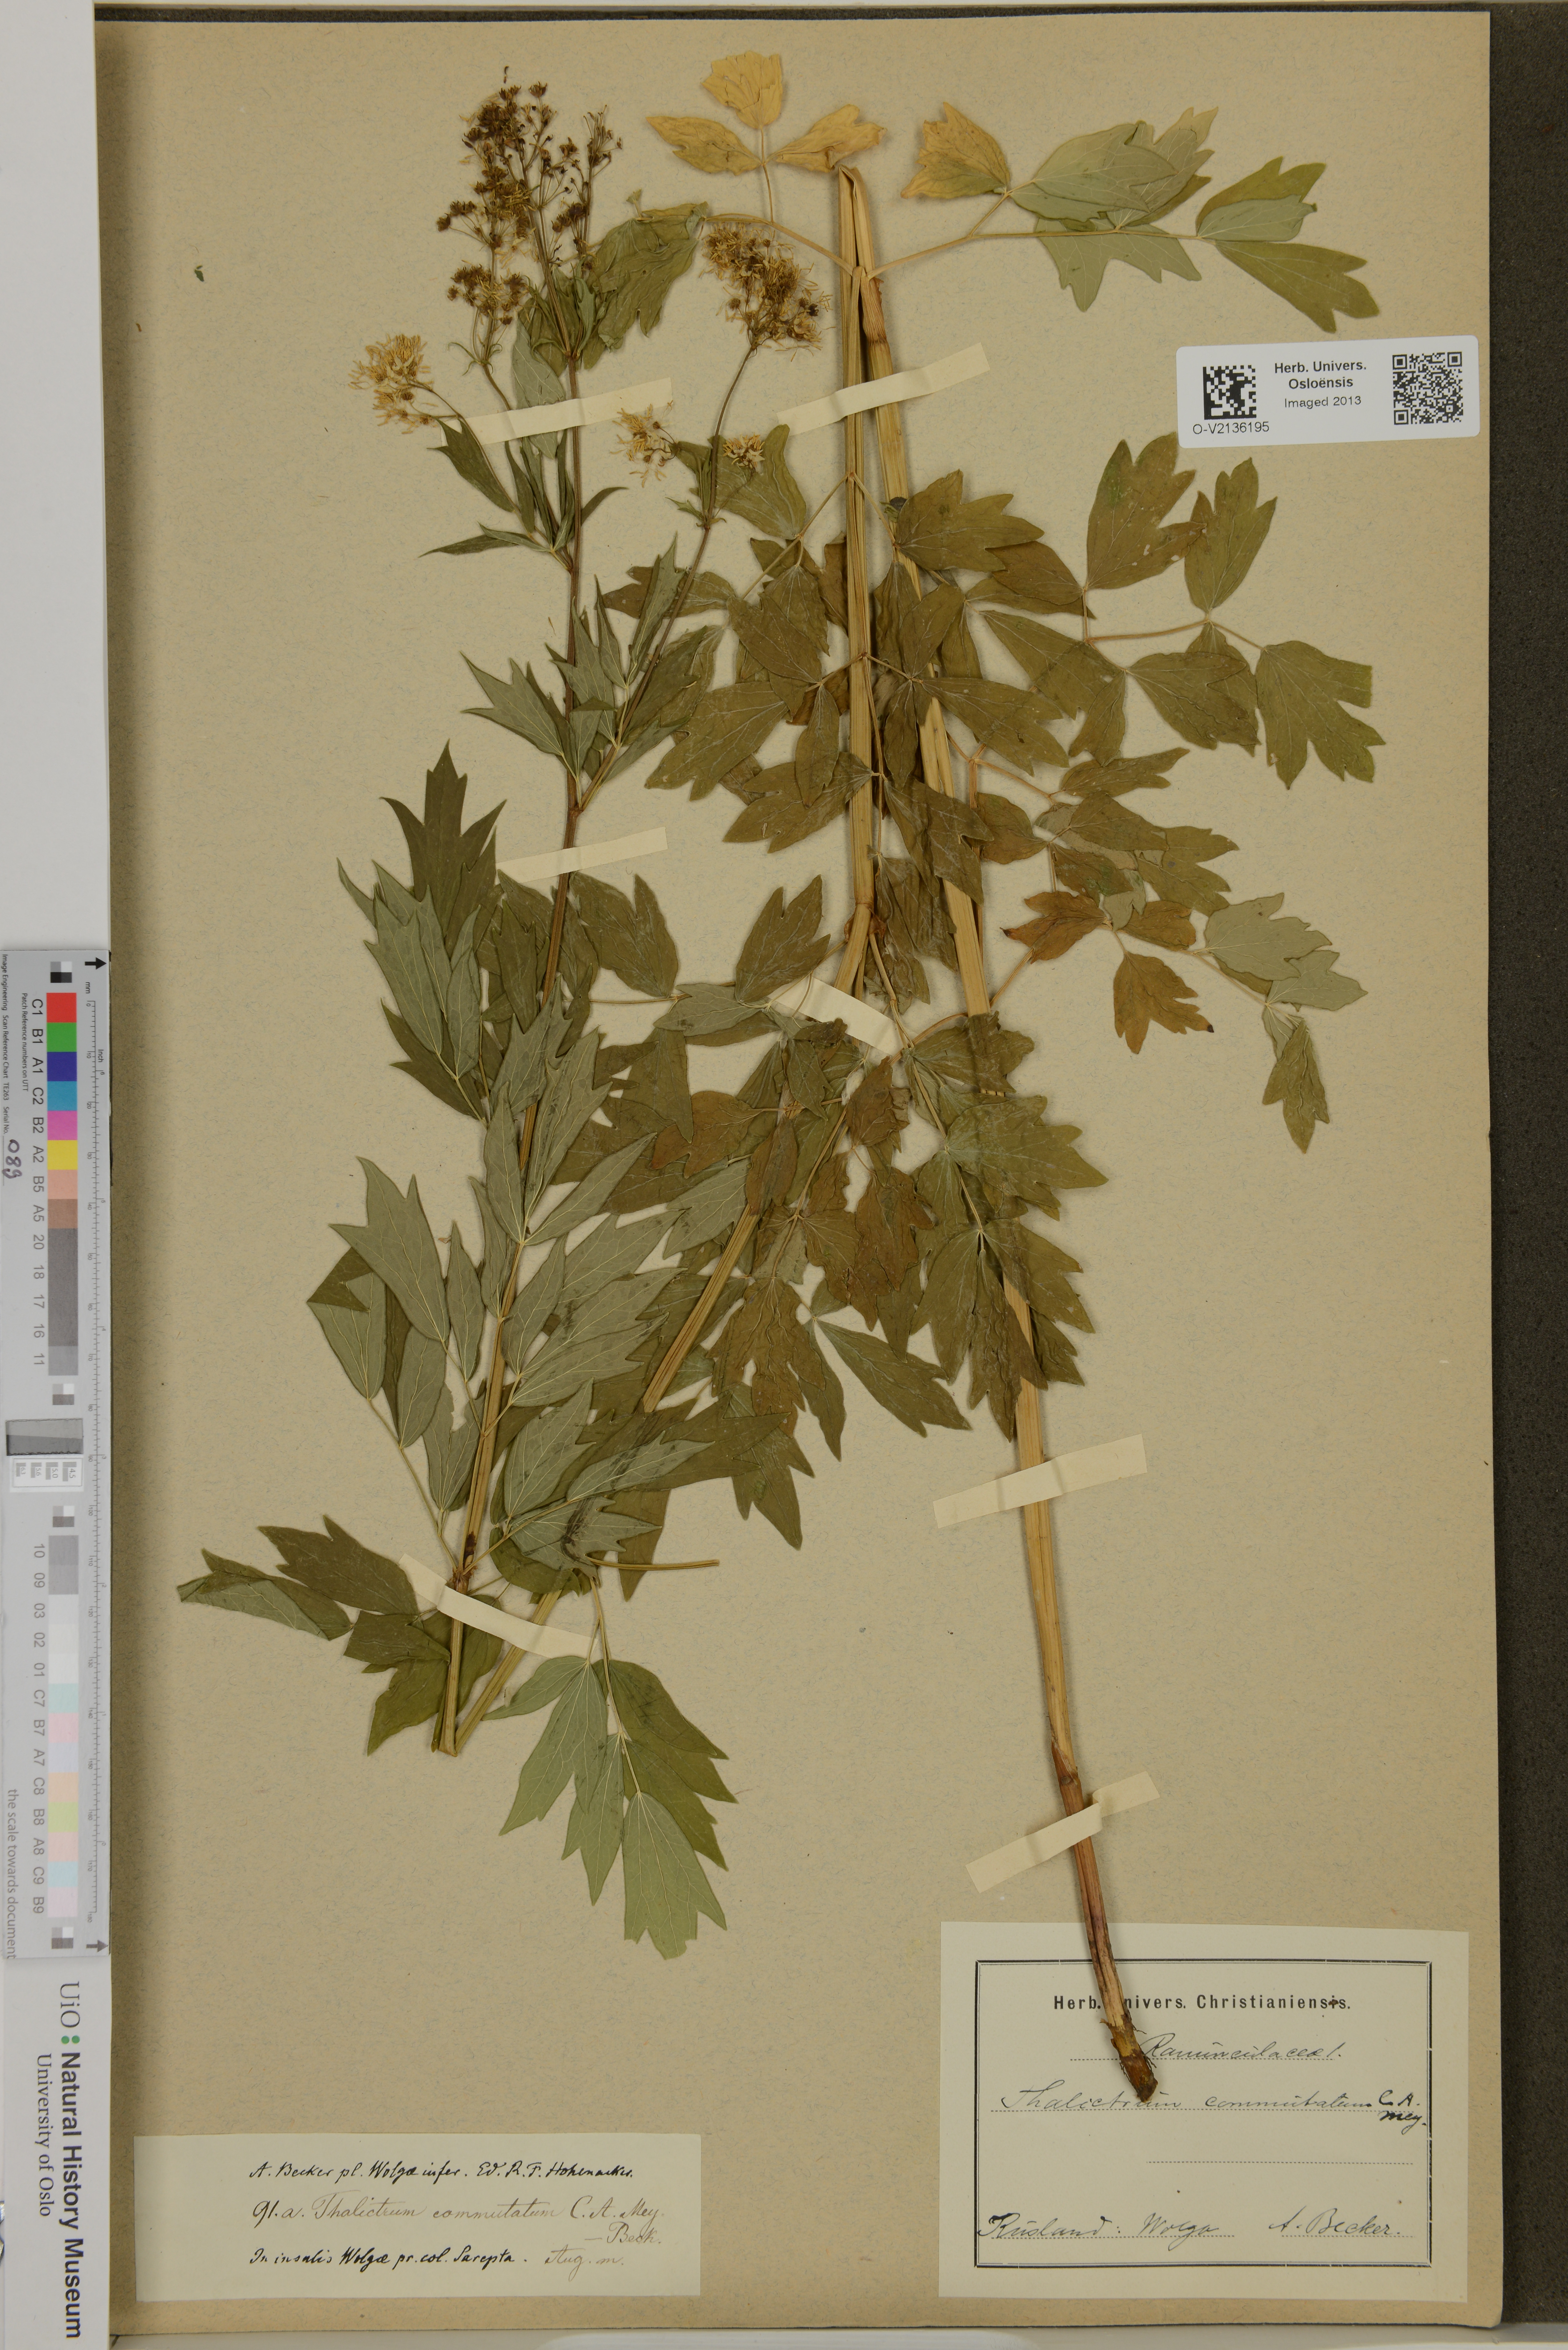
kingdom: Plantae
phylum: Tracheophyta
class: Magnoliopsida
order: Ranunculales
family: Ranunculaceae
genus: Thalictrum
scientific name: Thalictrum flavum
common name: Common meadow-rue
